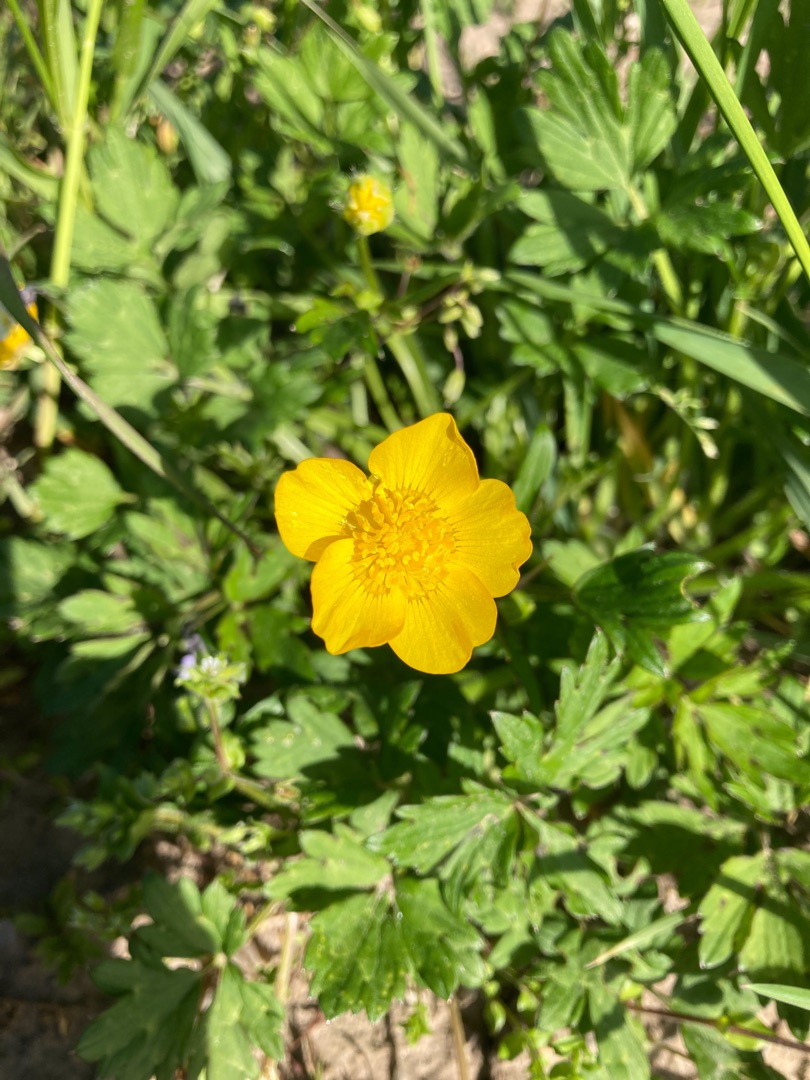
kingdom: Plantae
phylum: Tracheophyta
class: Magnoliopsida
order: Ranunculales
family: Ranunculaceae
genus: Ranunculus
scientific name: Ranunculus repens
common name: Lav ranunkel
